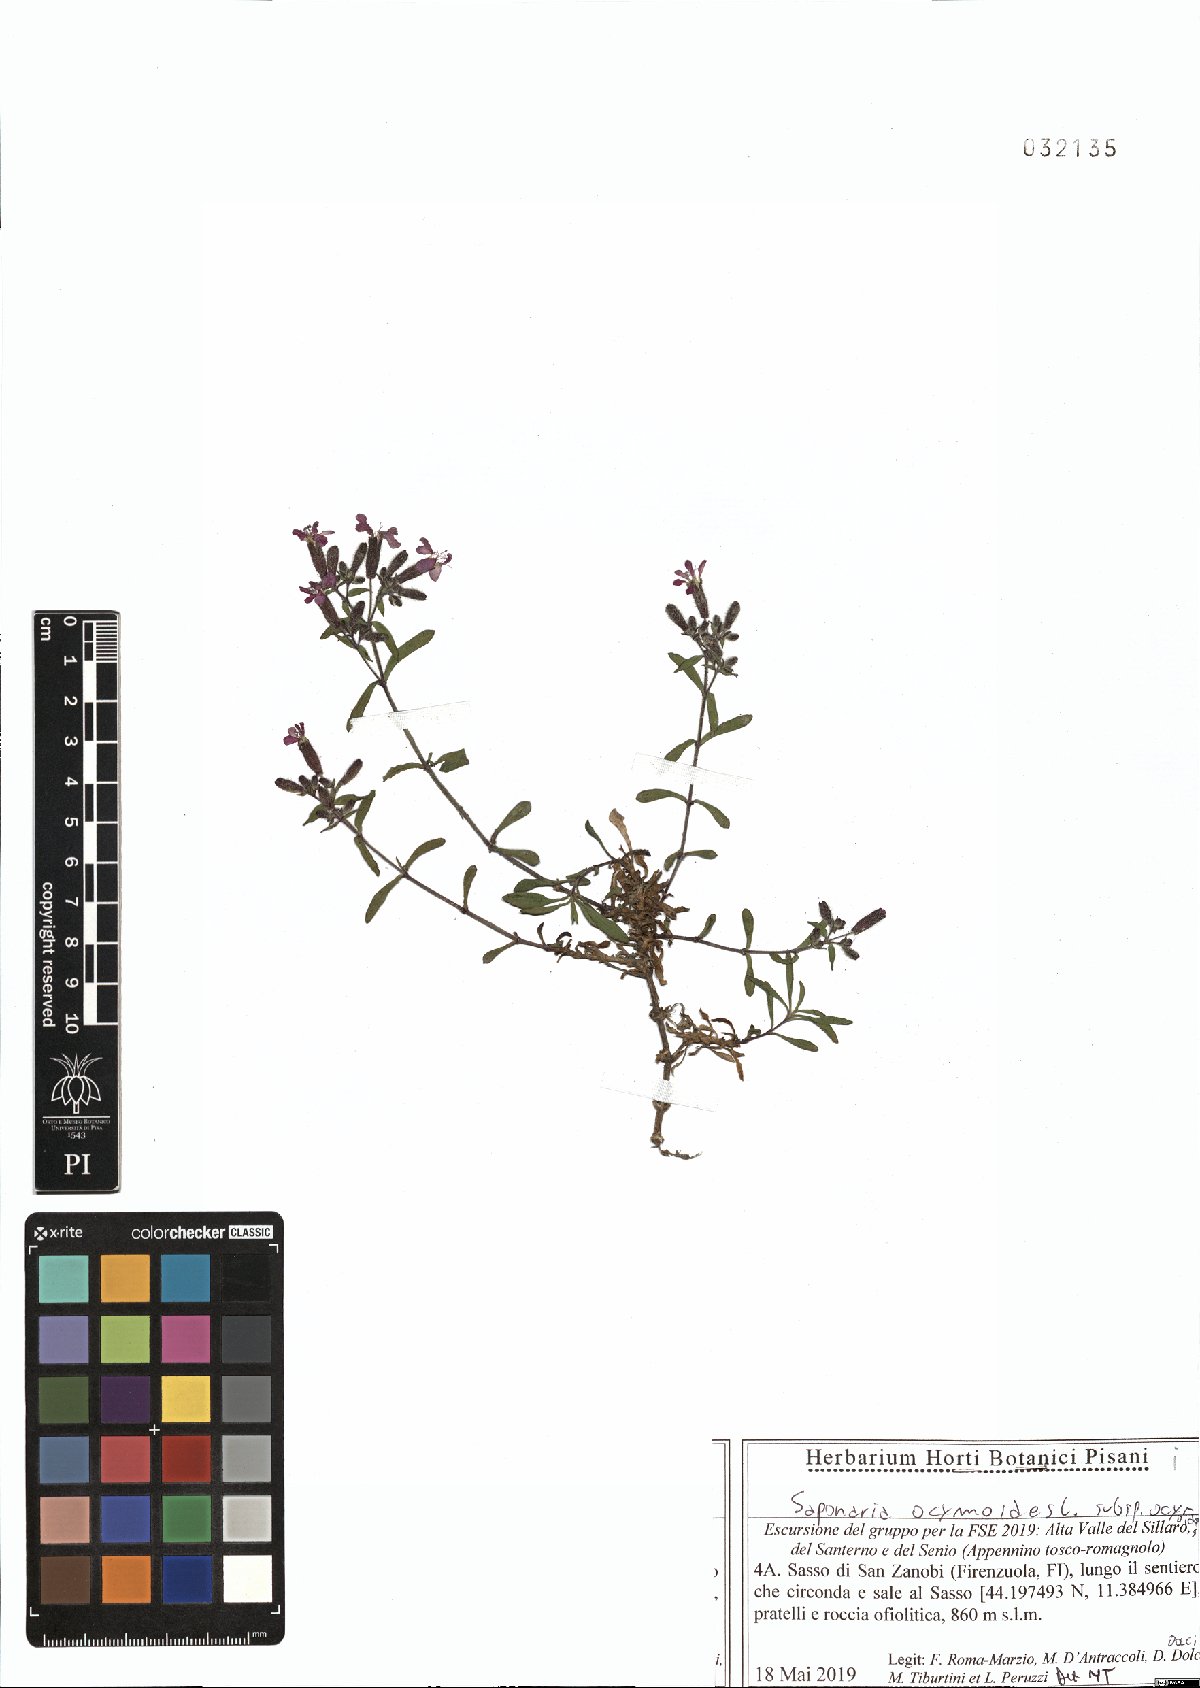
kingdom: Plantae
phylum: Tracheophyta
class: Magnoliopsida
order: Caryophyllales
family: Caryophyllaceae
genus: Saponaria
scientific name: Saponaria ocymoides
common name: Rock soapwort
